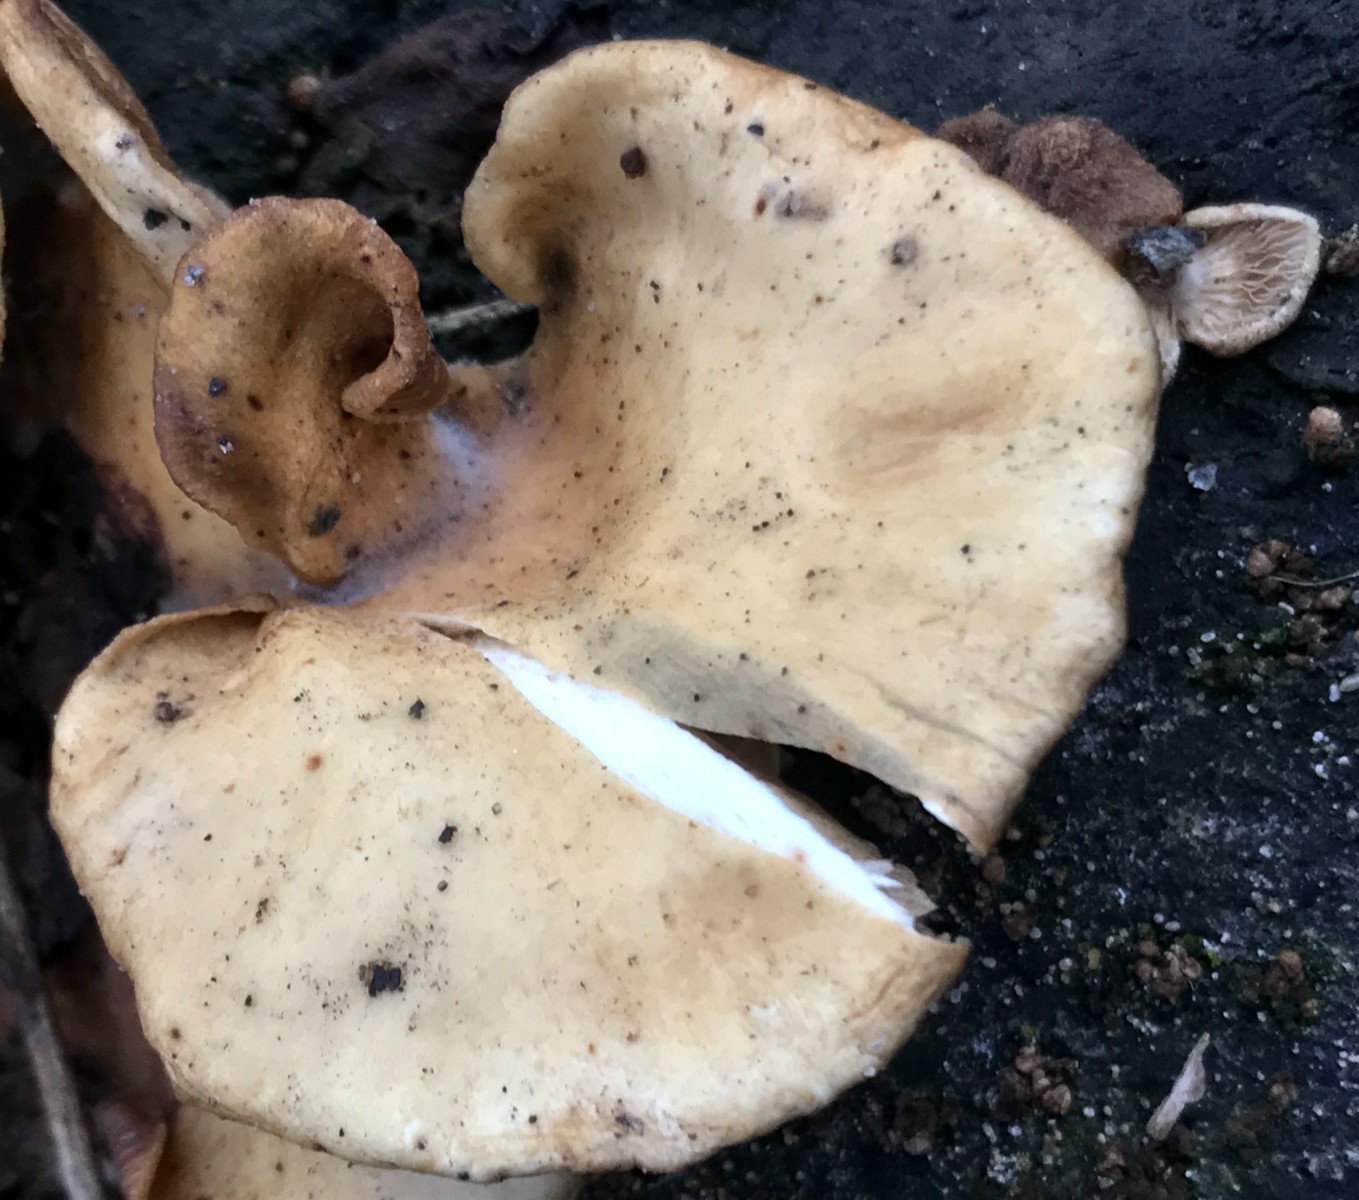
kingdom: Fungi
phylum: Basidiomycota
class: Agaricomycetes
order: Agaricales
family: Crepidotaceae
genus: Crepidotus
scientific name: Crepidotus mollis
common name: blød muslingesvamp
